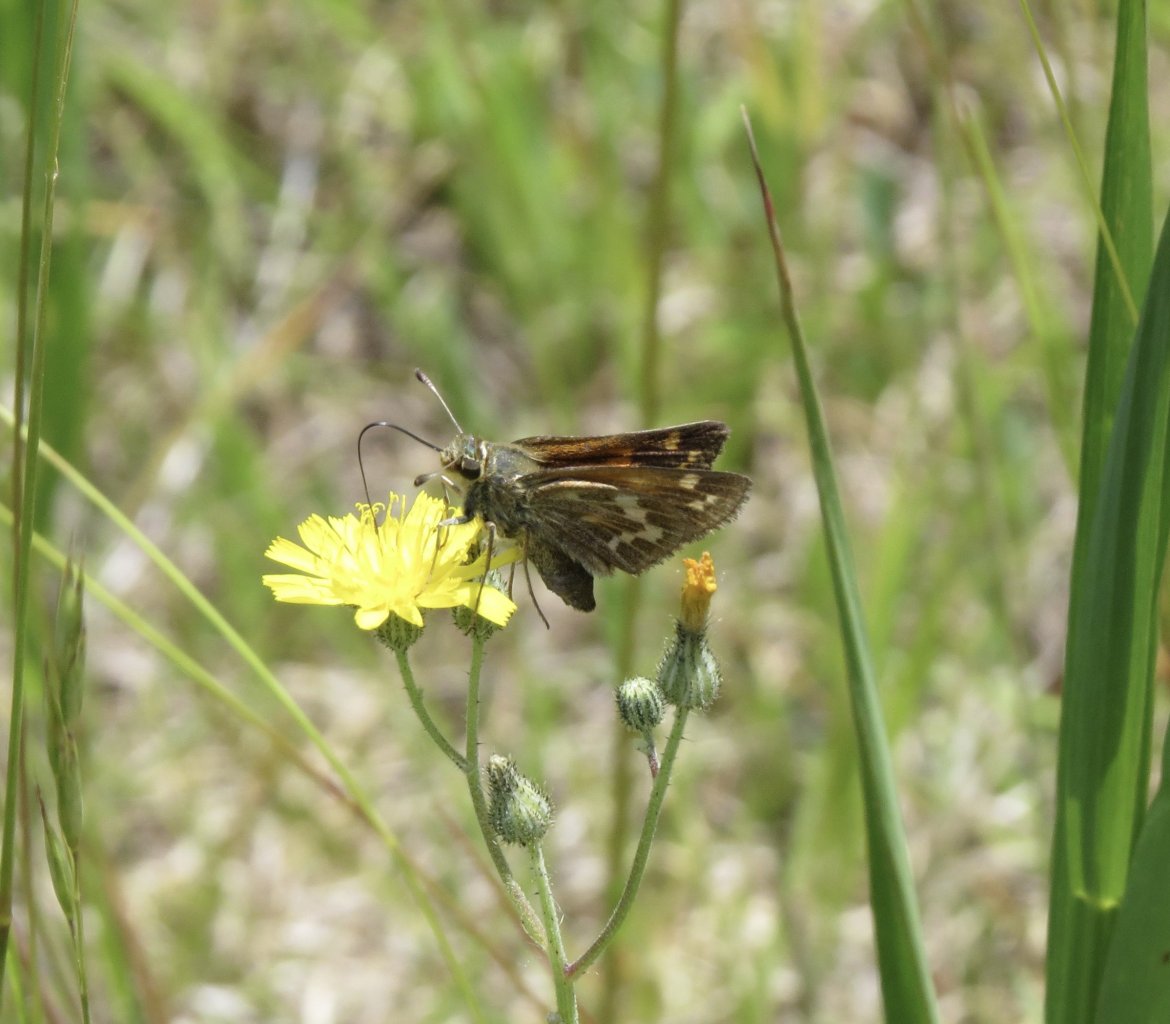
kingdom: Animalia
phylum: Arthropoda
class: Insecta
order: Lepidoptera
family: Hesperiidae
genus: Atalopedes
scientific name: Atalopedes campestris
